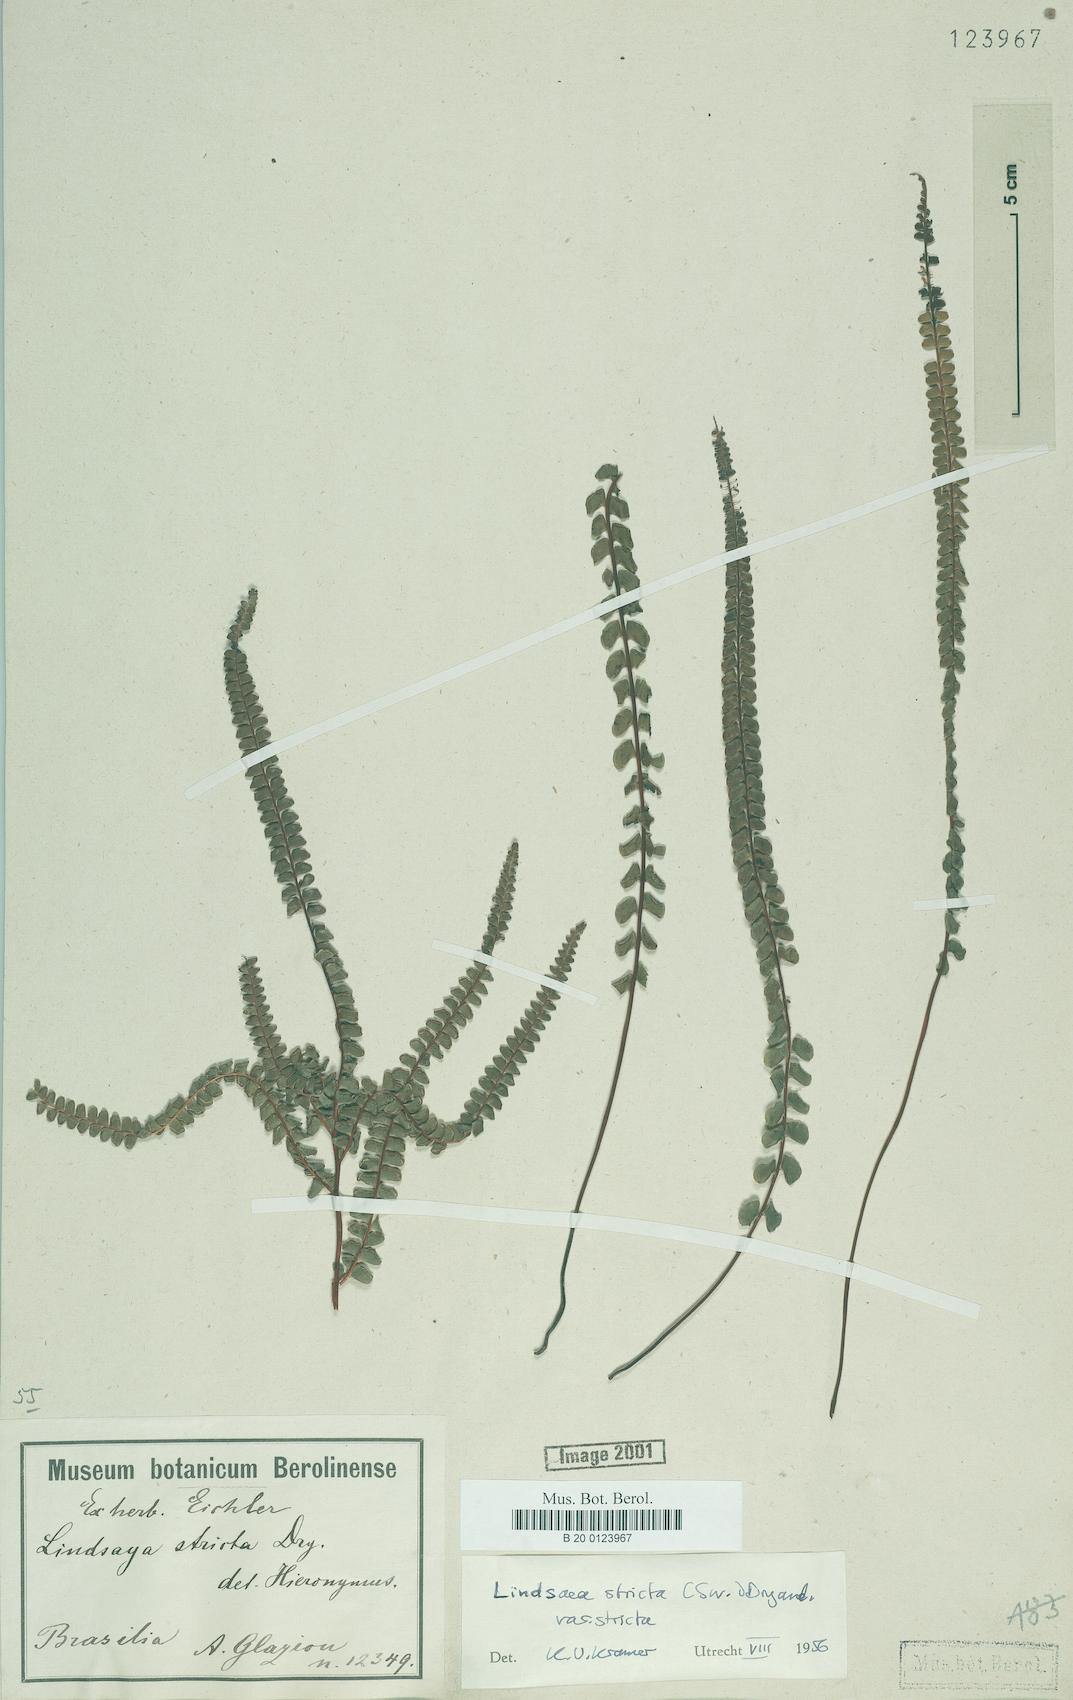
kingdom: Plantae
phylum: Tracheophyta
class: Polypodiopsida
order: Polypodiales
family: Lindsaeaceae
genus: Lindsaea
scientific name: Lindsaea stricta
